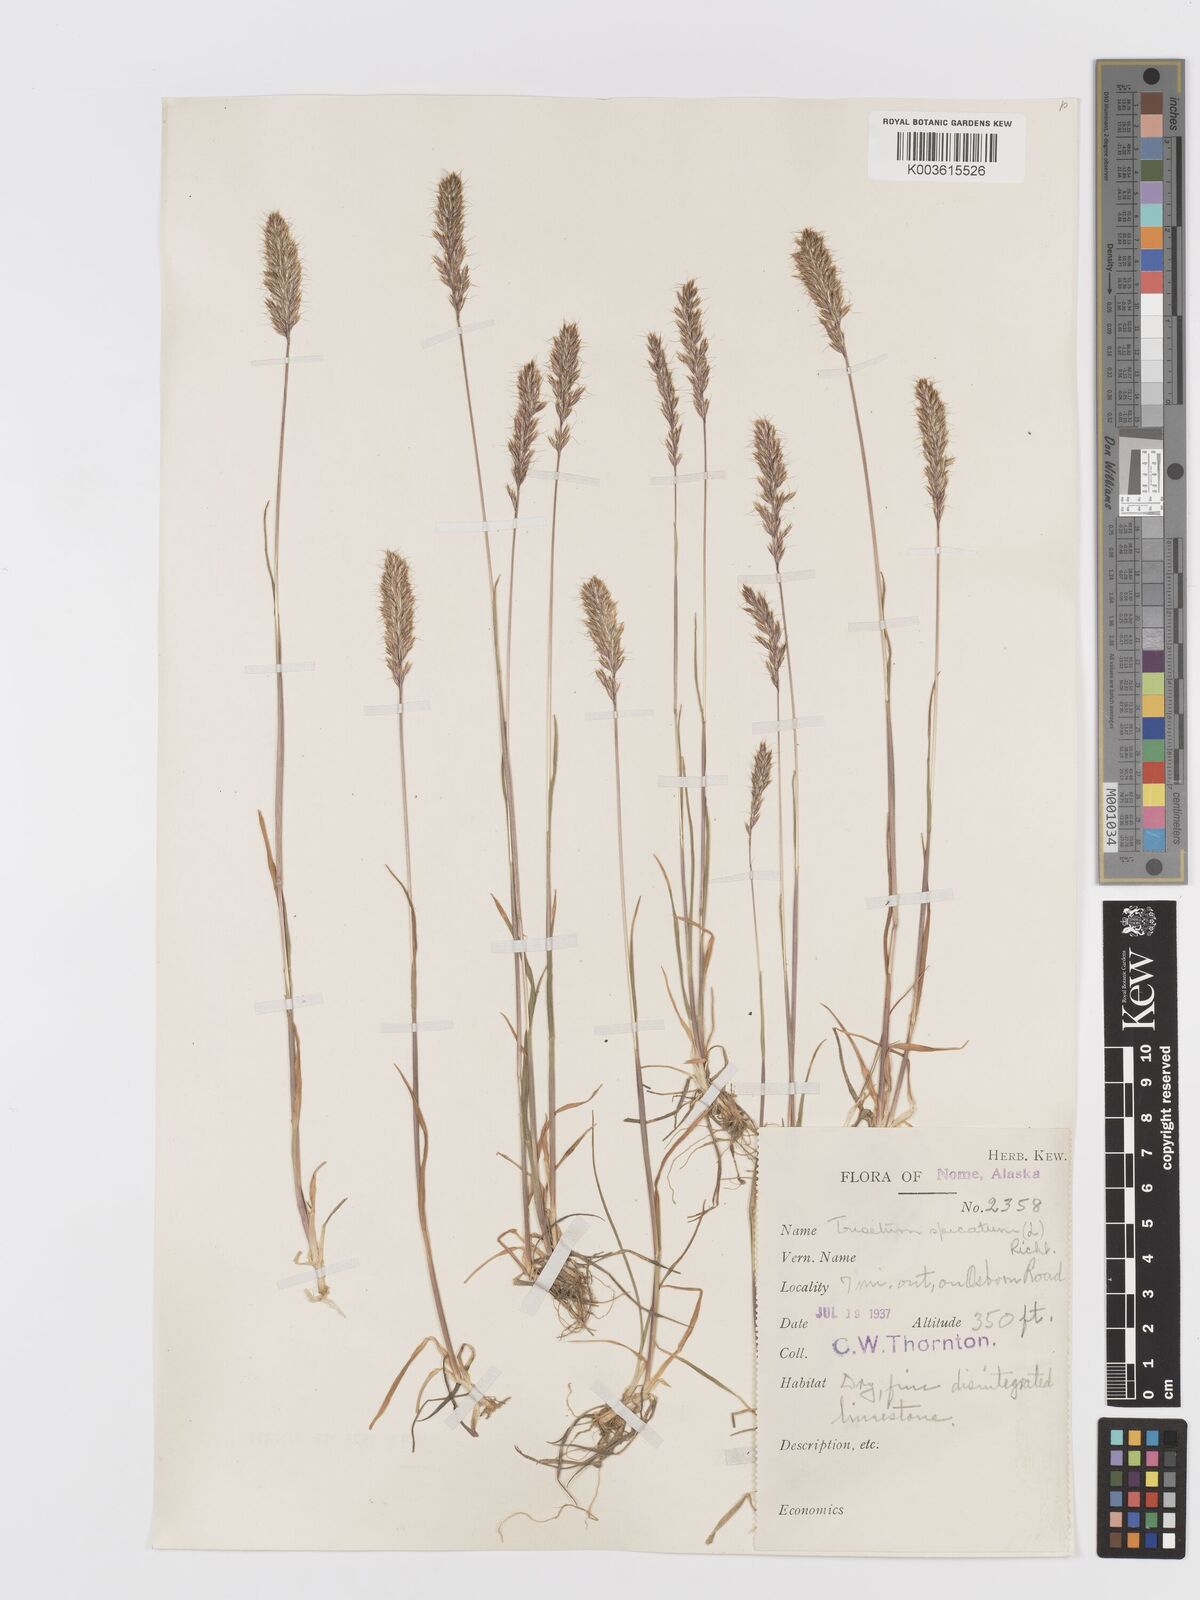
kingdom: Plantae
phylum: Tracheophyta
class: Liliopsida
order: Poales
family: Poaceae
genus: Koeleria
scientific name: Koeleria spicata
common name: Mountain trisetum
